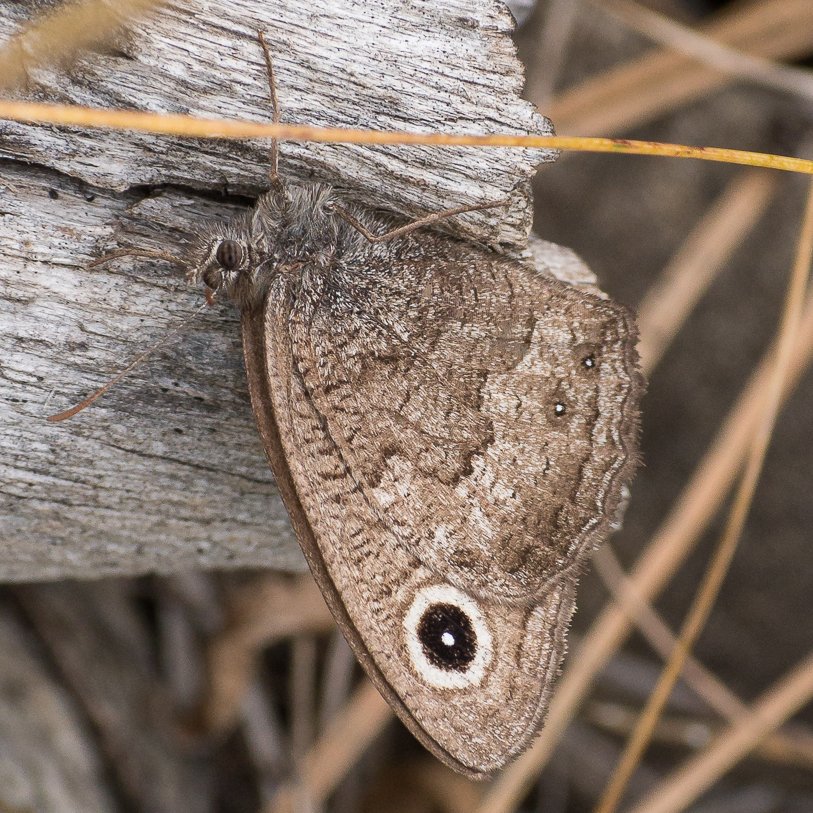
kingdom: Animalia
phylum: Arthropoda
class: Insecta
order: Lepidoptera
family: Nymphalidae
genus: Cercyonis
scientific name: Cercyonis pegala
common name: Common Wood-Nymph
